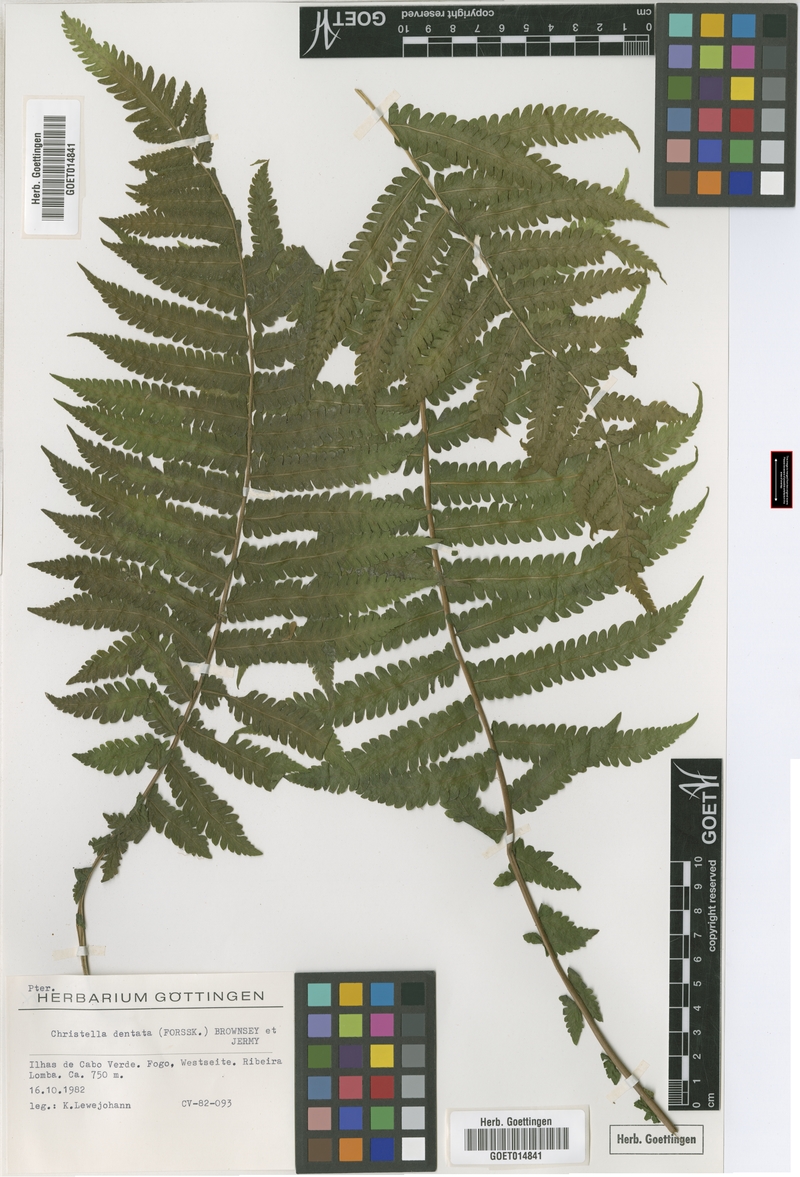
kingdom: Plantae
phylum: Tracheophyta
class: Polypodiopsida
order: Polypodiales
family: Thelypteridaceae
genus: Christella
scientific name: Christella dentata
